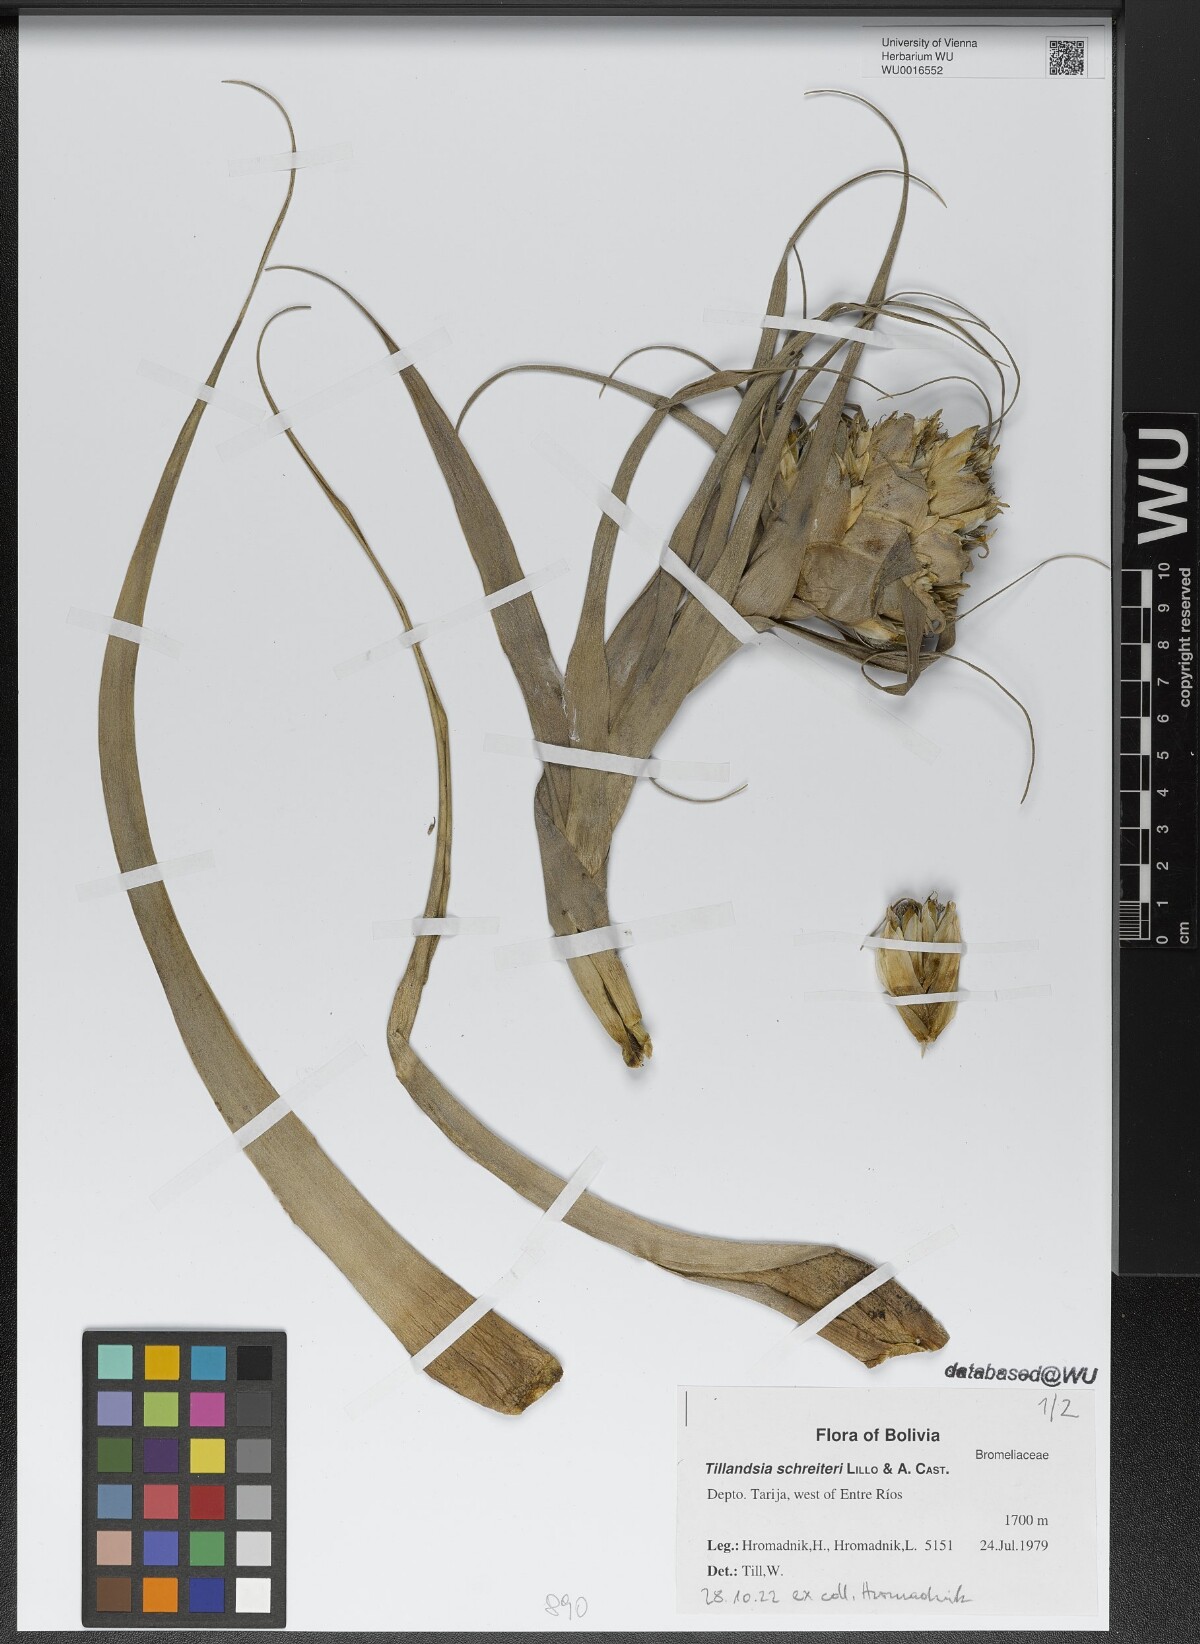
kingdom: Plantae
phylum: Tracheophyta
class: Liliopsida
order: Poales
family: Bromeliaceae
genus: Tillandsia
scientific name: Tillandsia schreiteri
